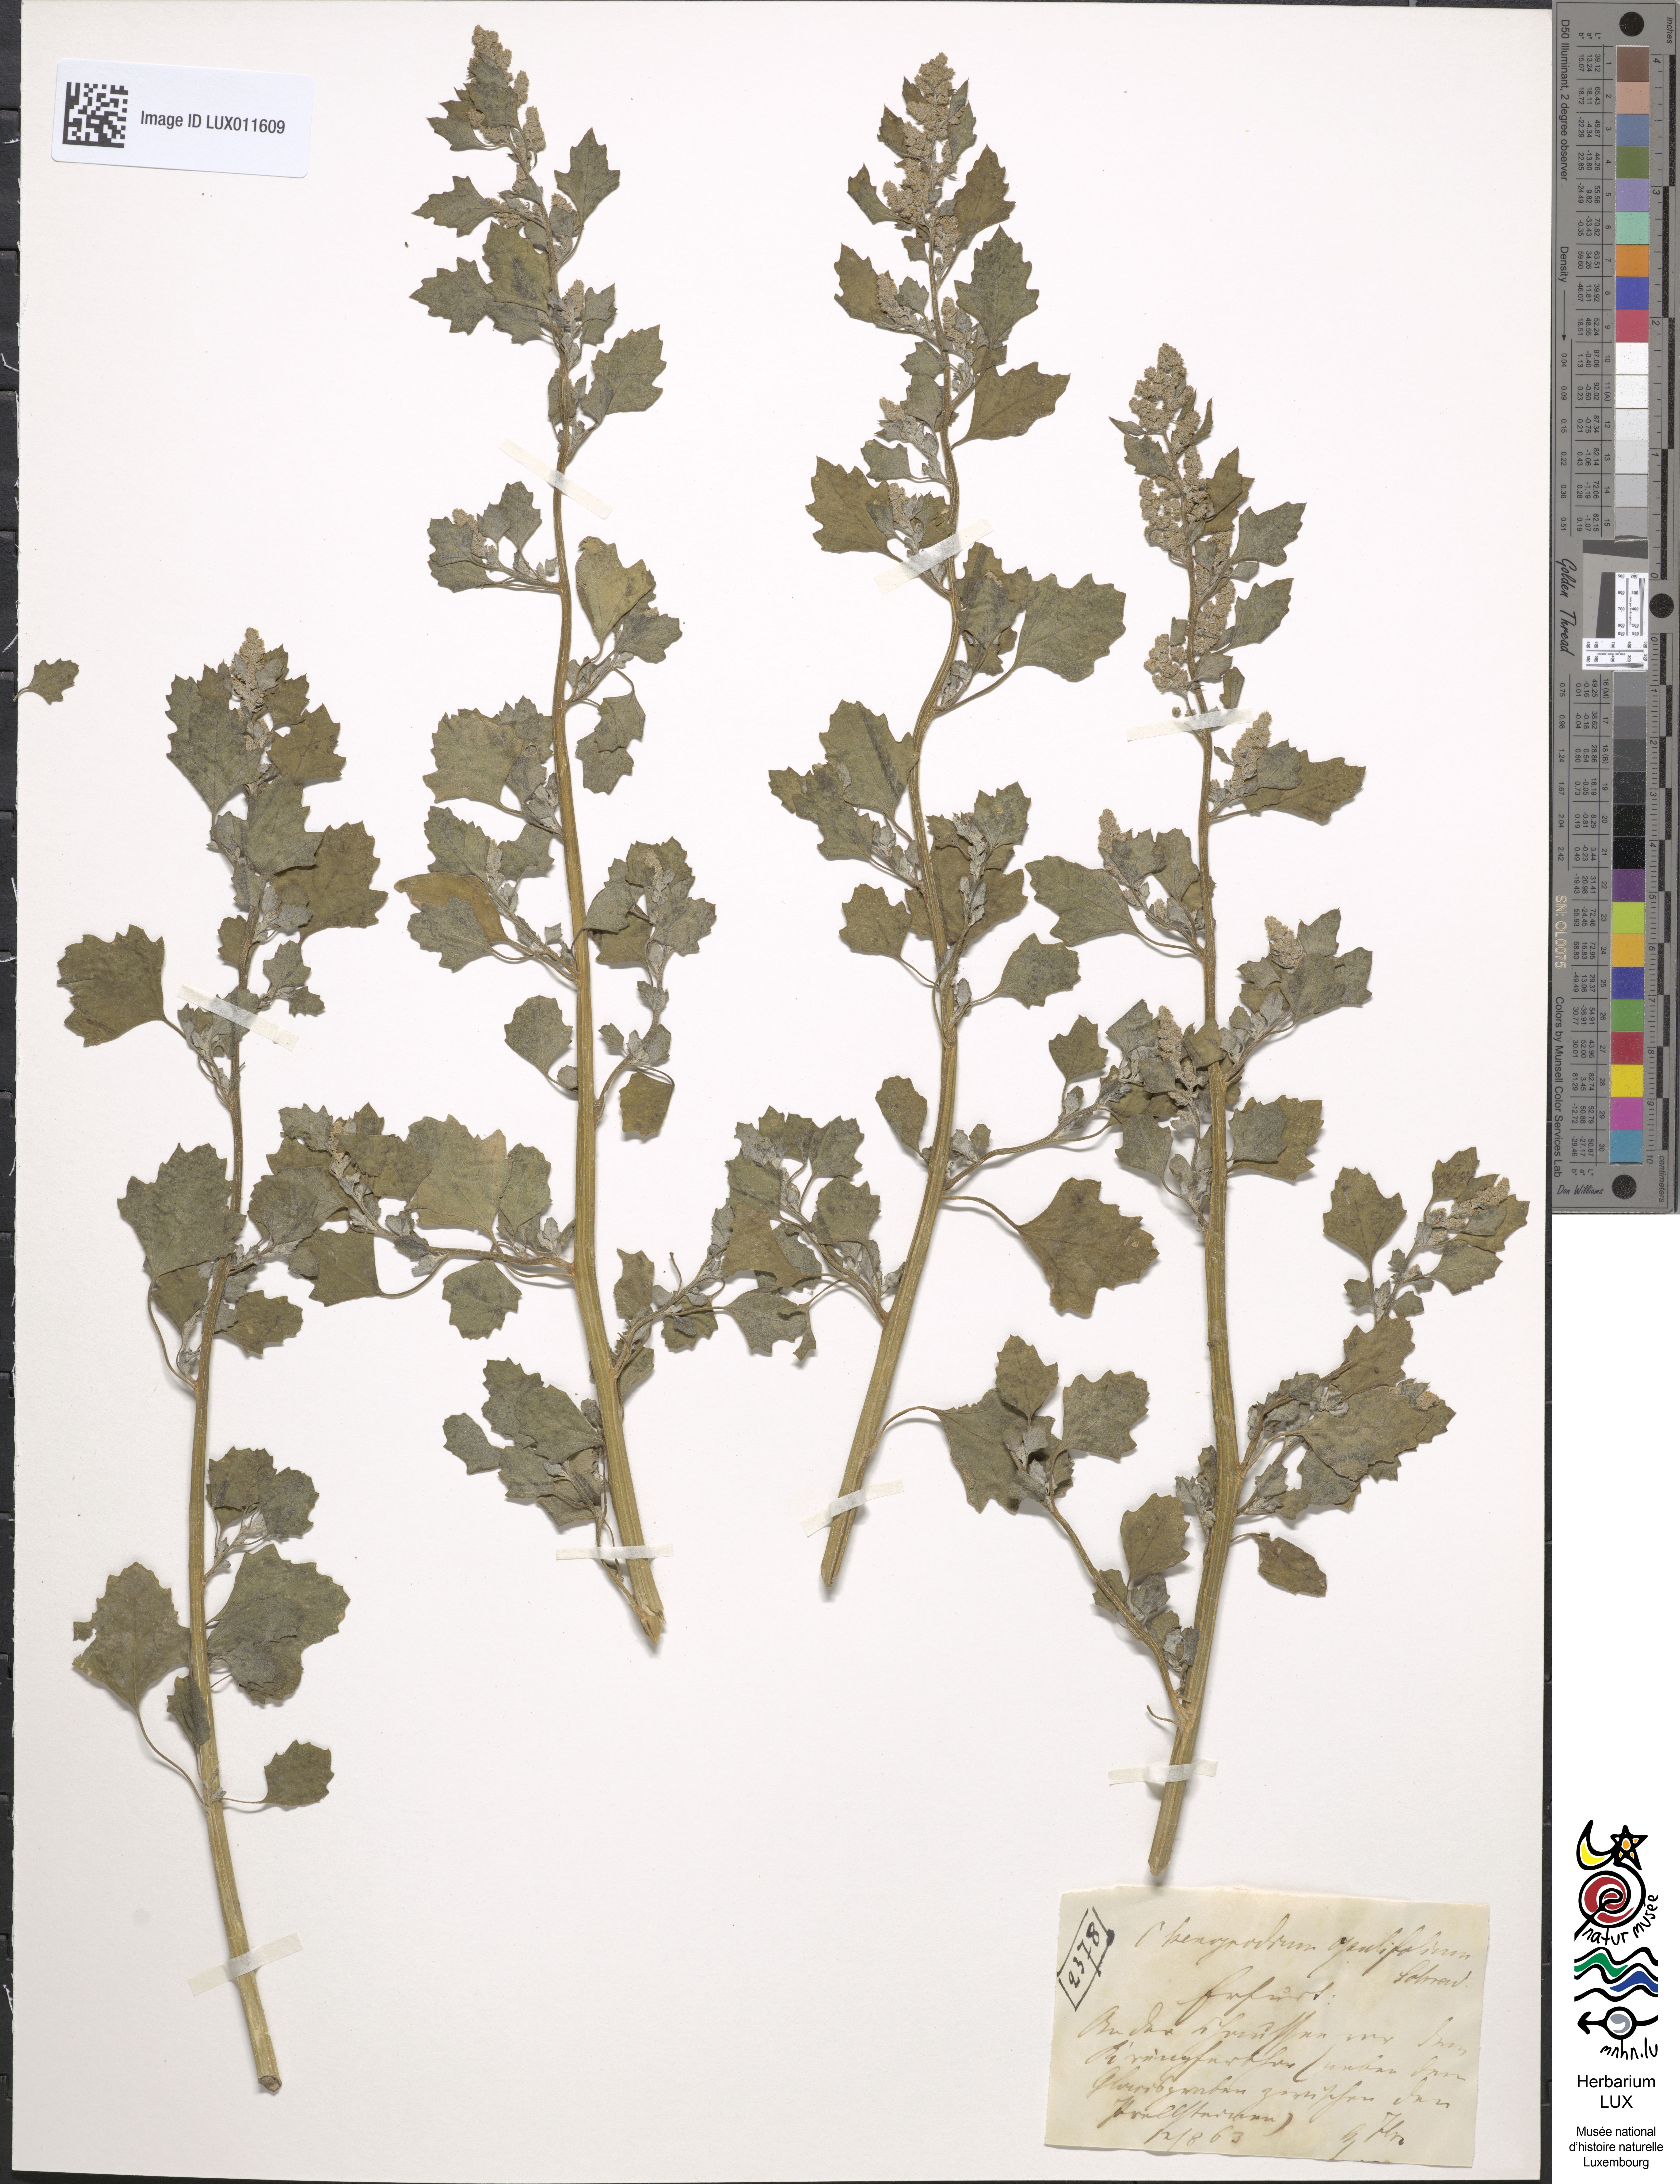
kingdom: Plantae
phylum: Tracheophyta
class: Magnoliopsida
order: Caryophyllales
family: Amaranthaceae
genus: Chenopodium
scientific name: Chenopodium opulifolium
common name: Grey goosefoot
